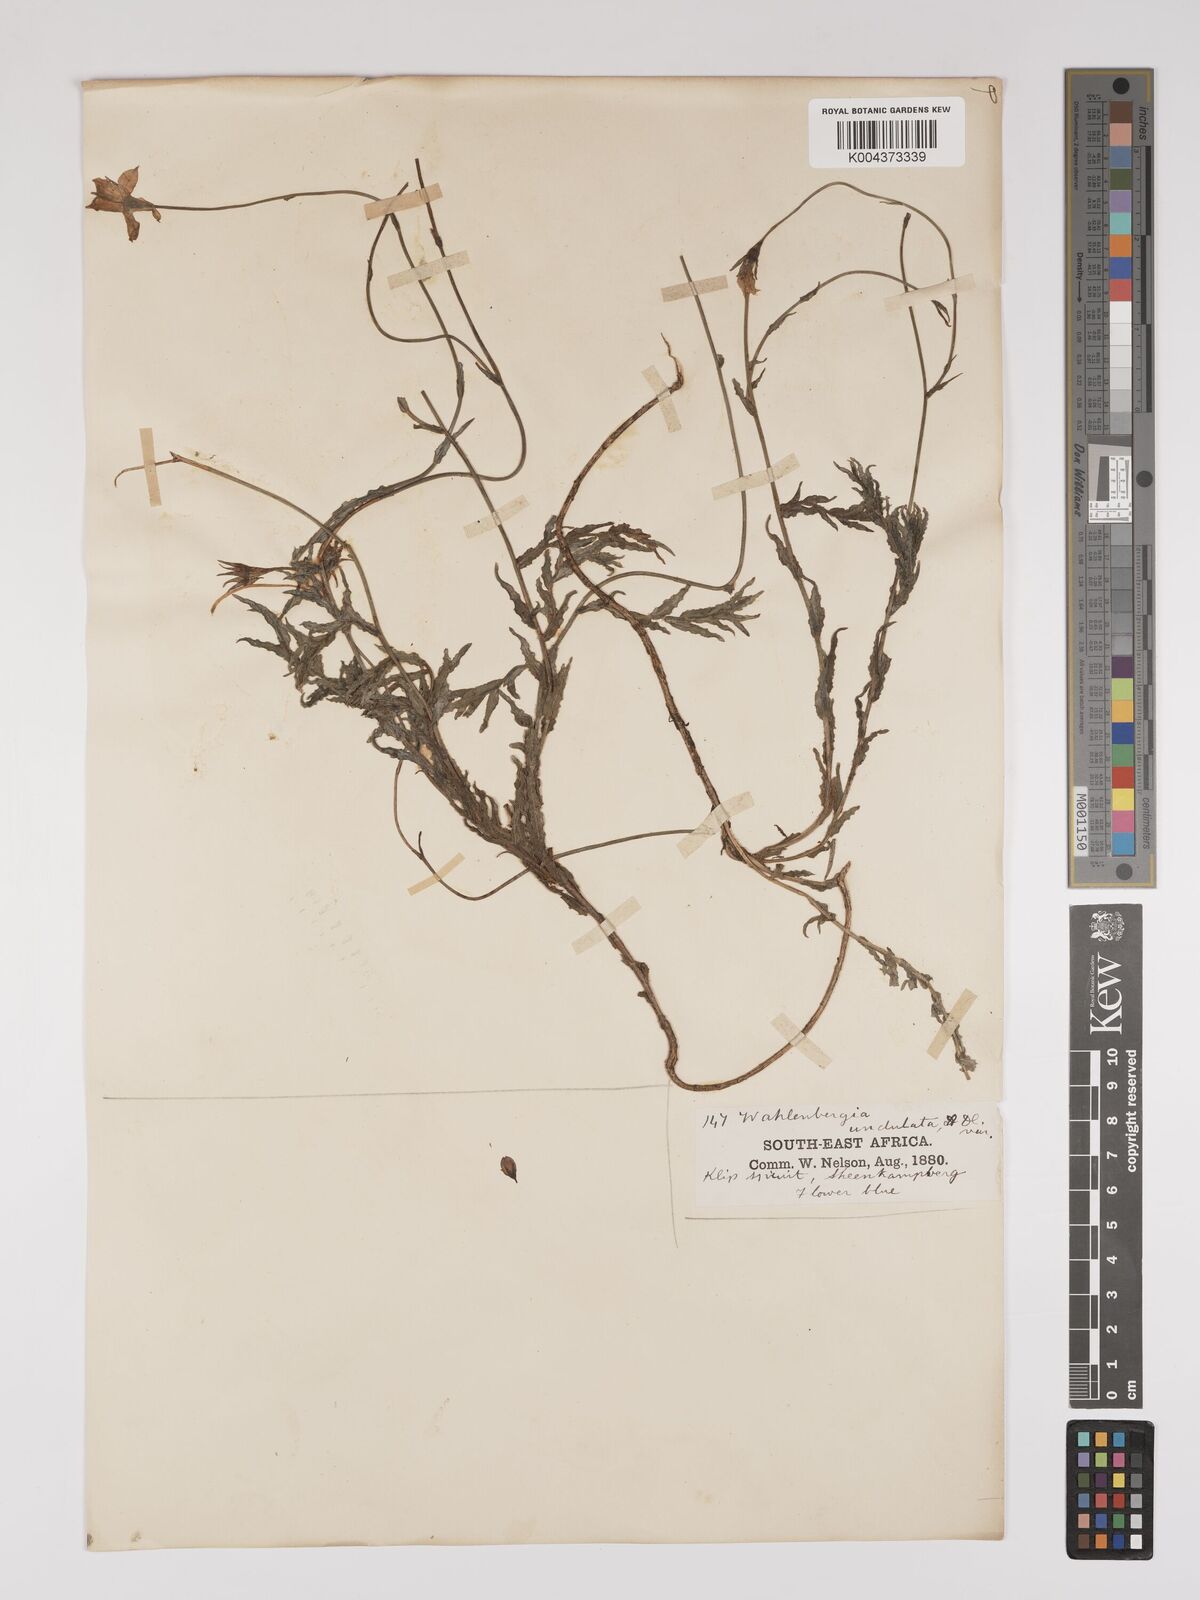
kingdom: Plantae
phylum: Tracheophyta
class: Magnoliopsida
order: Asterales
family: Campanulaceae
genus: Wahlenbergia
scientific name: Wahlenbergia undulata
